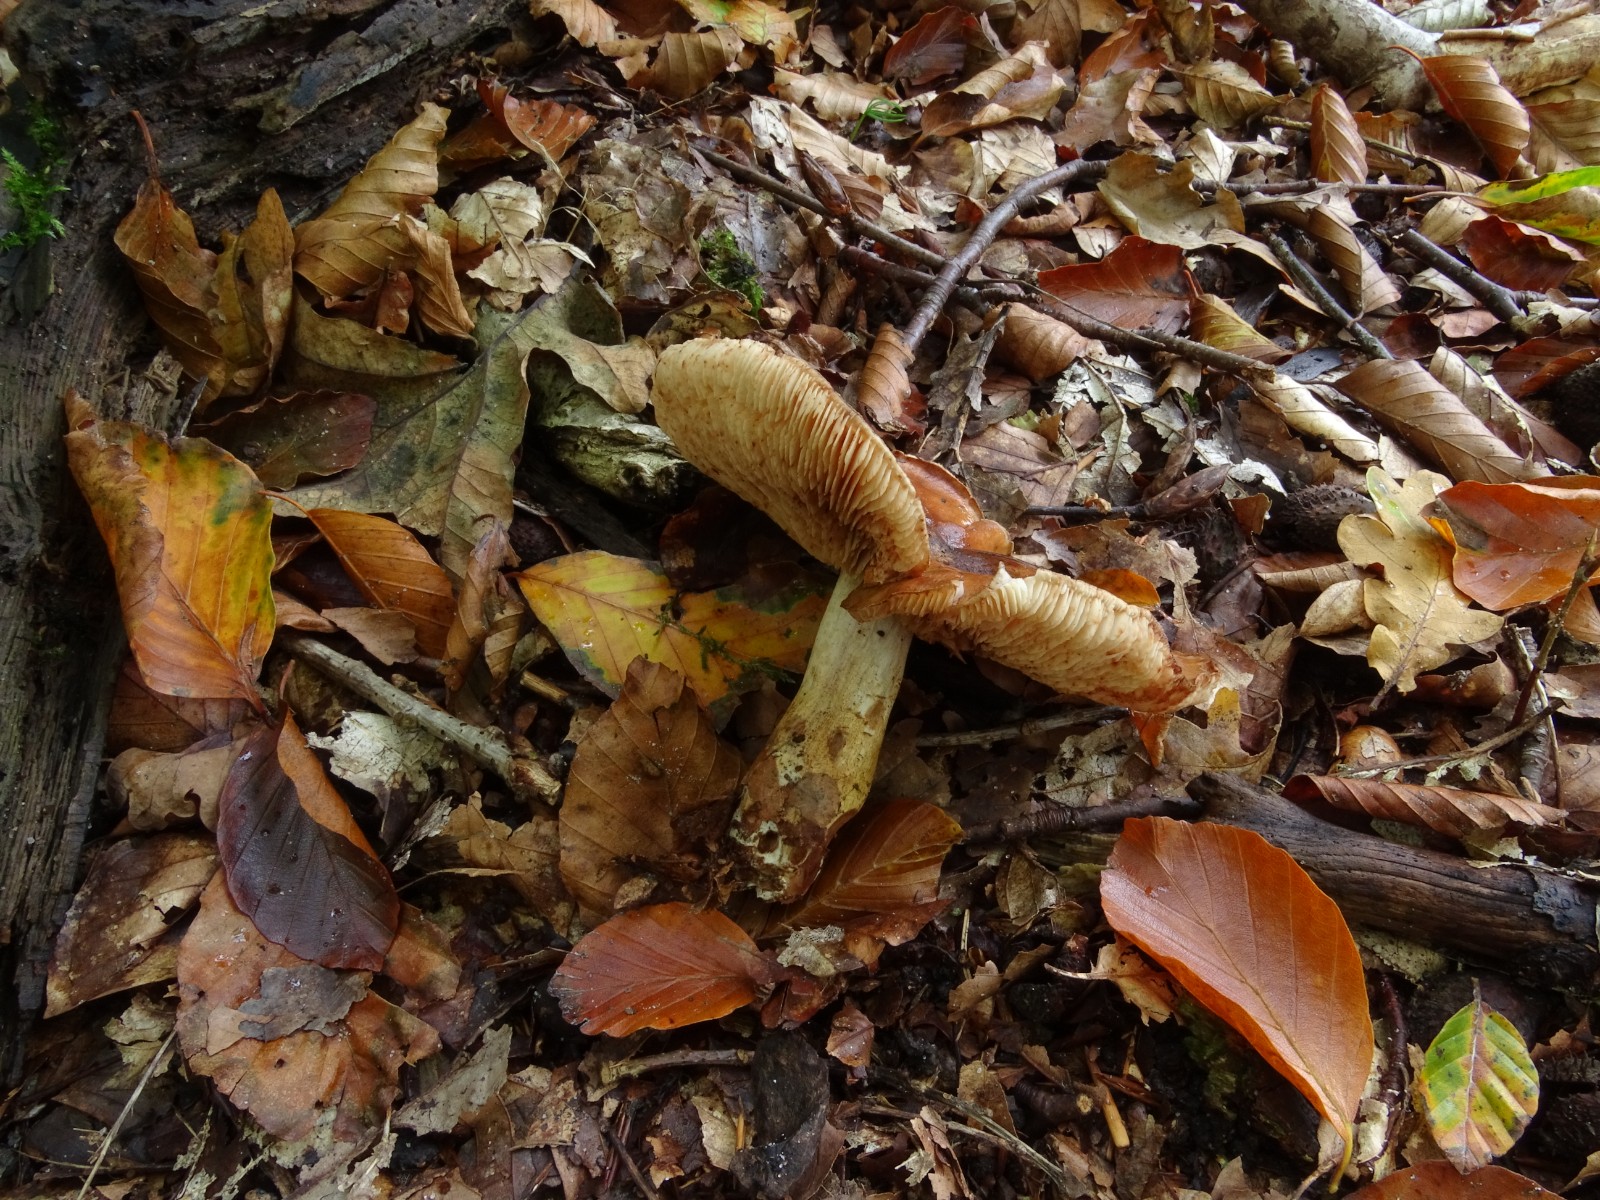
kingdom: Fungi
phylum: Basidiomycota
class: Agaricomycetes
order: Agaricales
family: Tricholomataceae
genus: Tricholoma
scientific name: Tricholoma ustale
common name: sveden ridderhat
